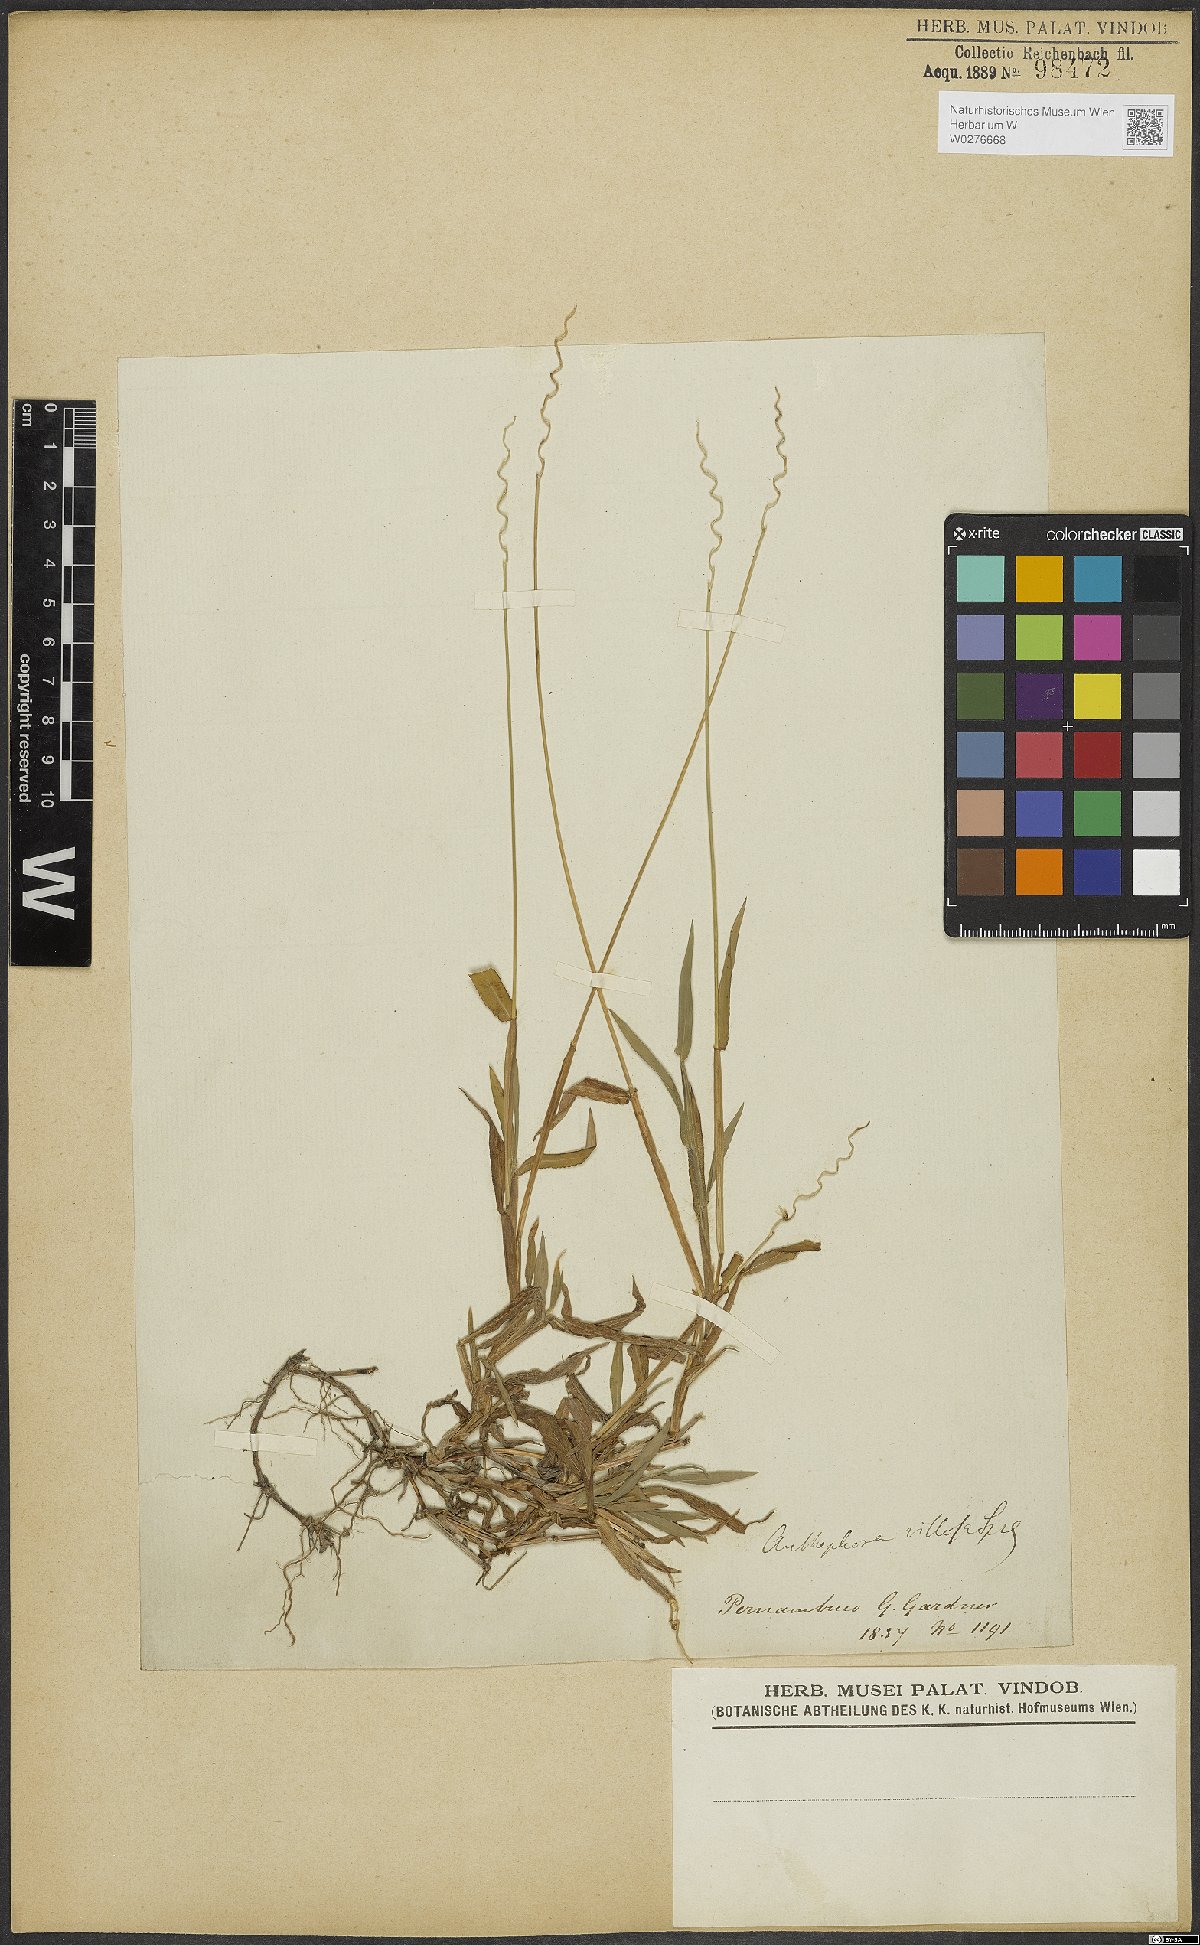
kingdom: Plantae
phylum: Tracheophyta
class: Liliopsida
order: Poales
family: Poaceae
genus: Anthephora
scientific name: Anthephora hermaphrodita
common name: Oldfield grass
